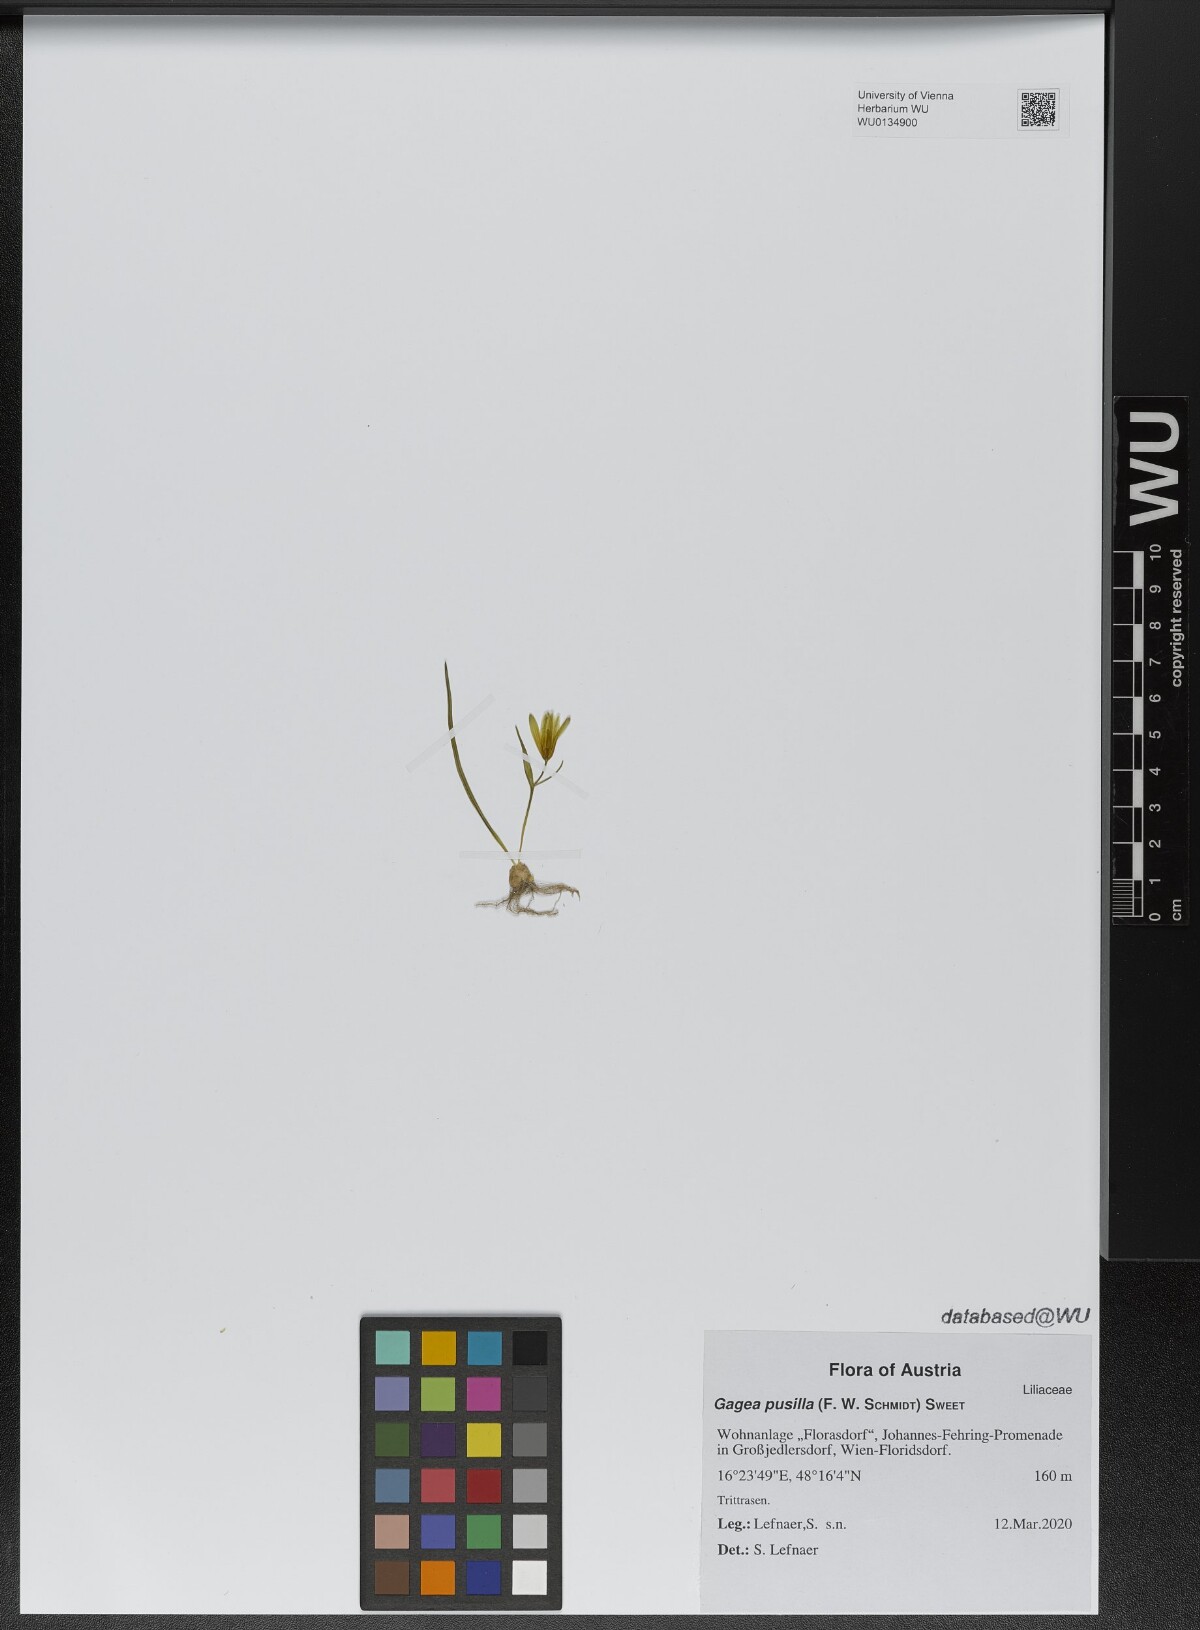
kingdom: Plantae
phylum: Tracheophyta
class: Liliopsida
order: Liliales
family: Liliaceae
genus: Gagea
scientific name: Gagea pusilla
